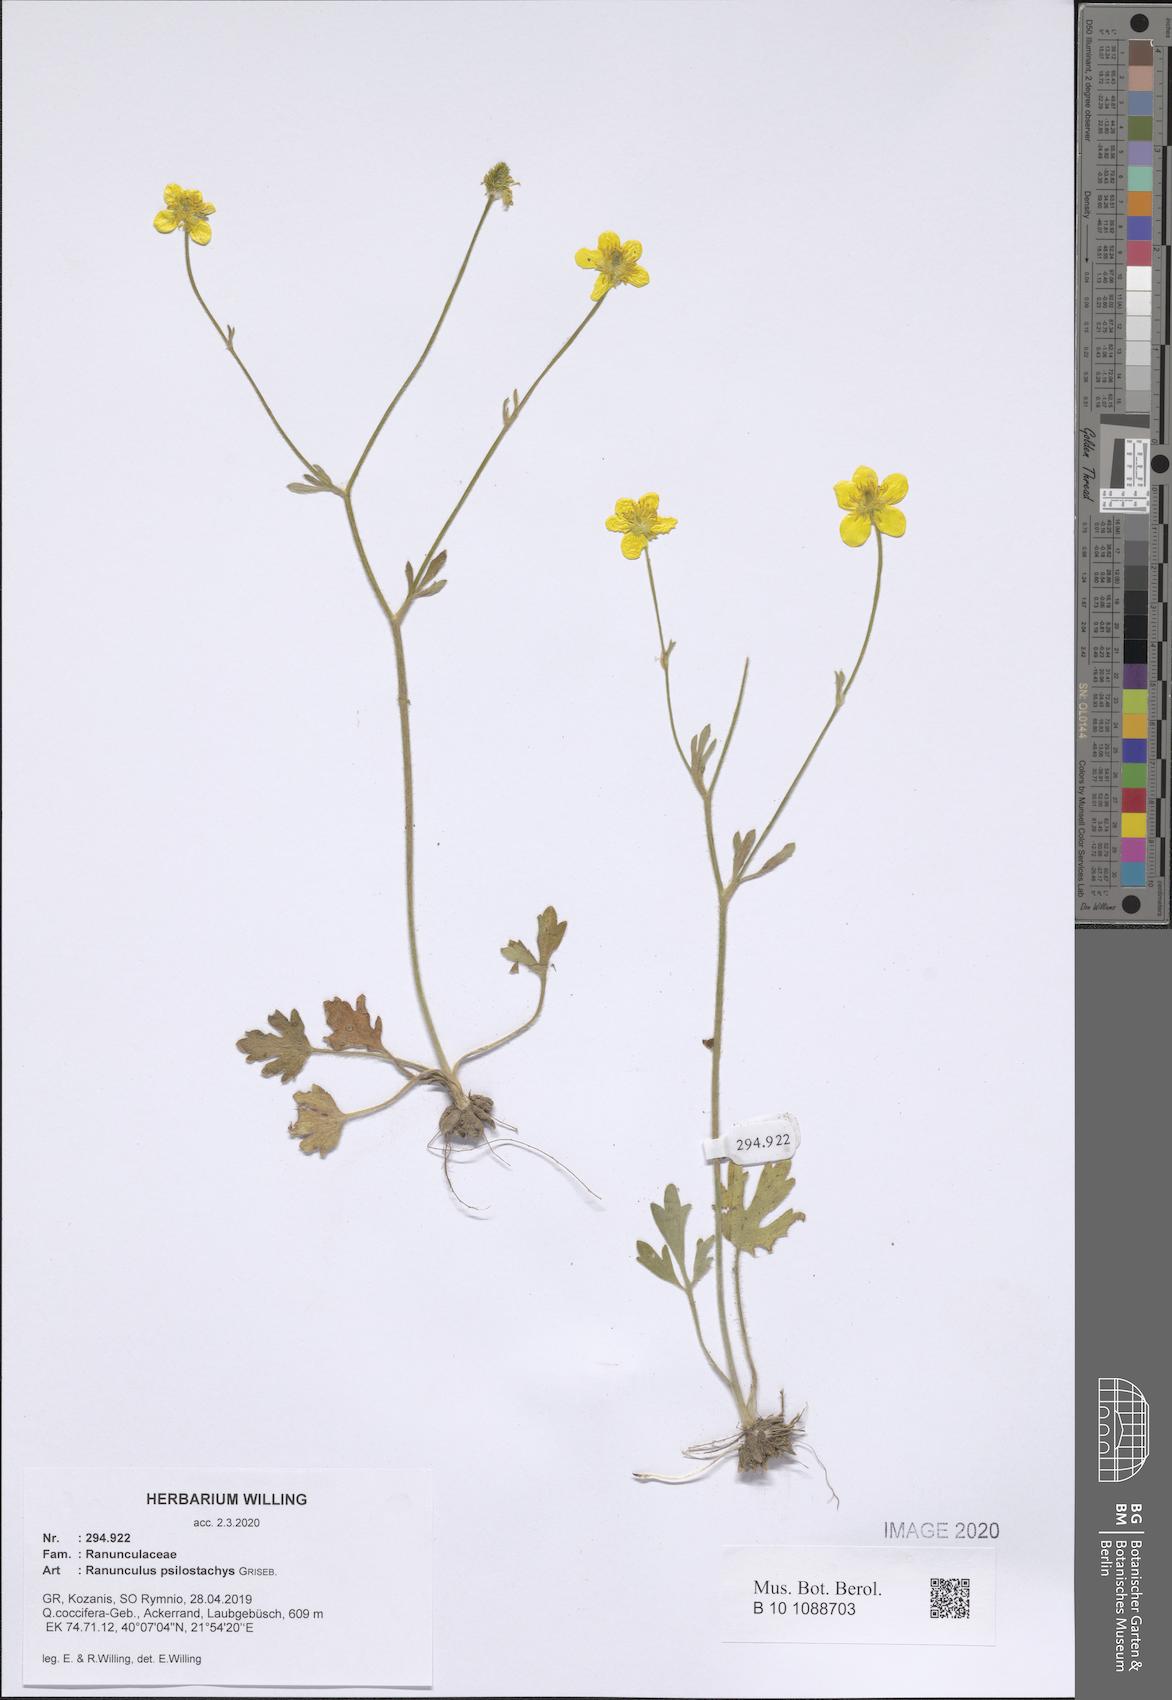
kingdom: Plantae
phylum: Tracheophyta
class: Magnoliopsida
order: Ranunculales
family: Ranunculaceae
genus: Ranunculus
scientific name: Ranunculus psilostachys
